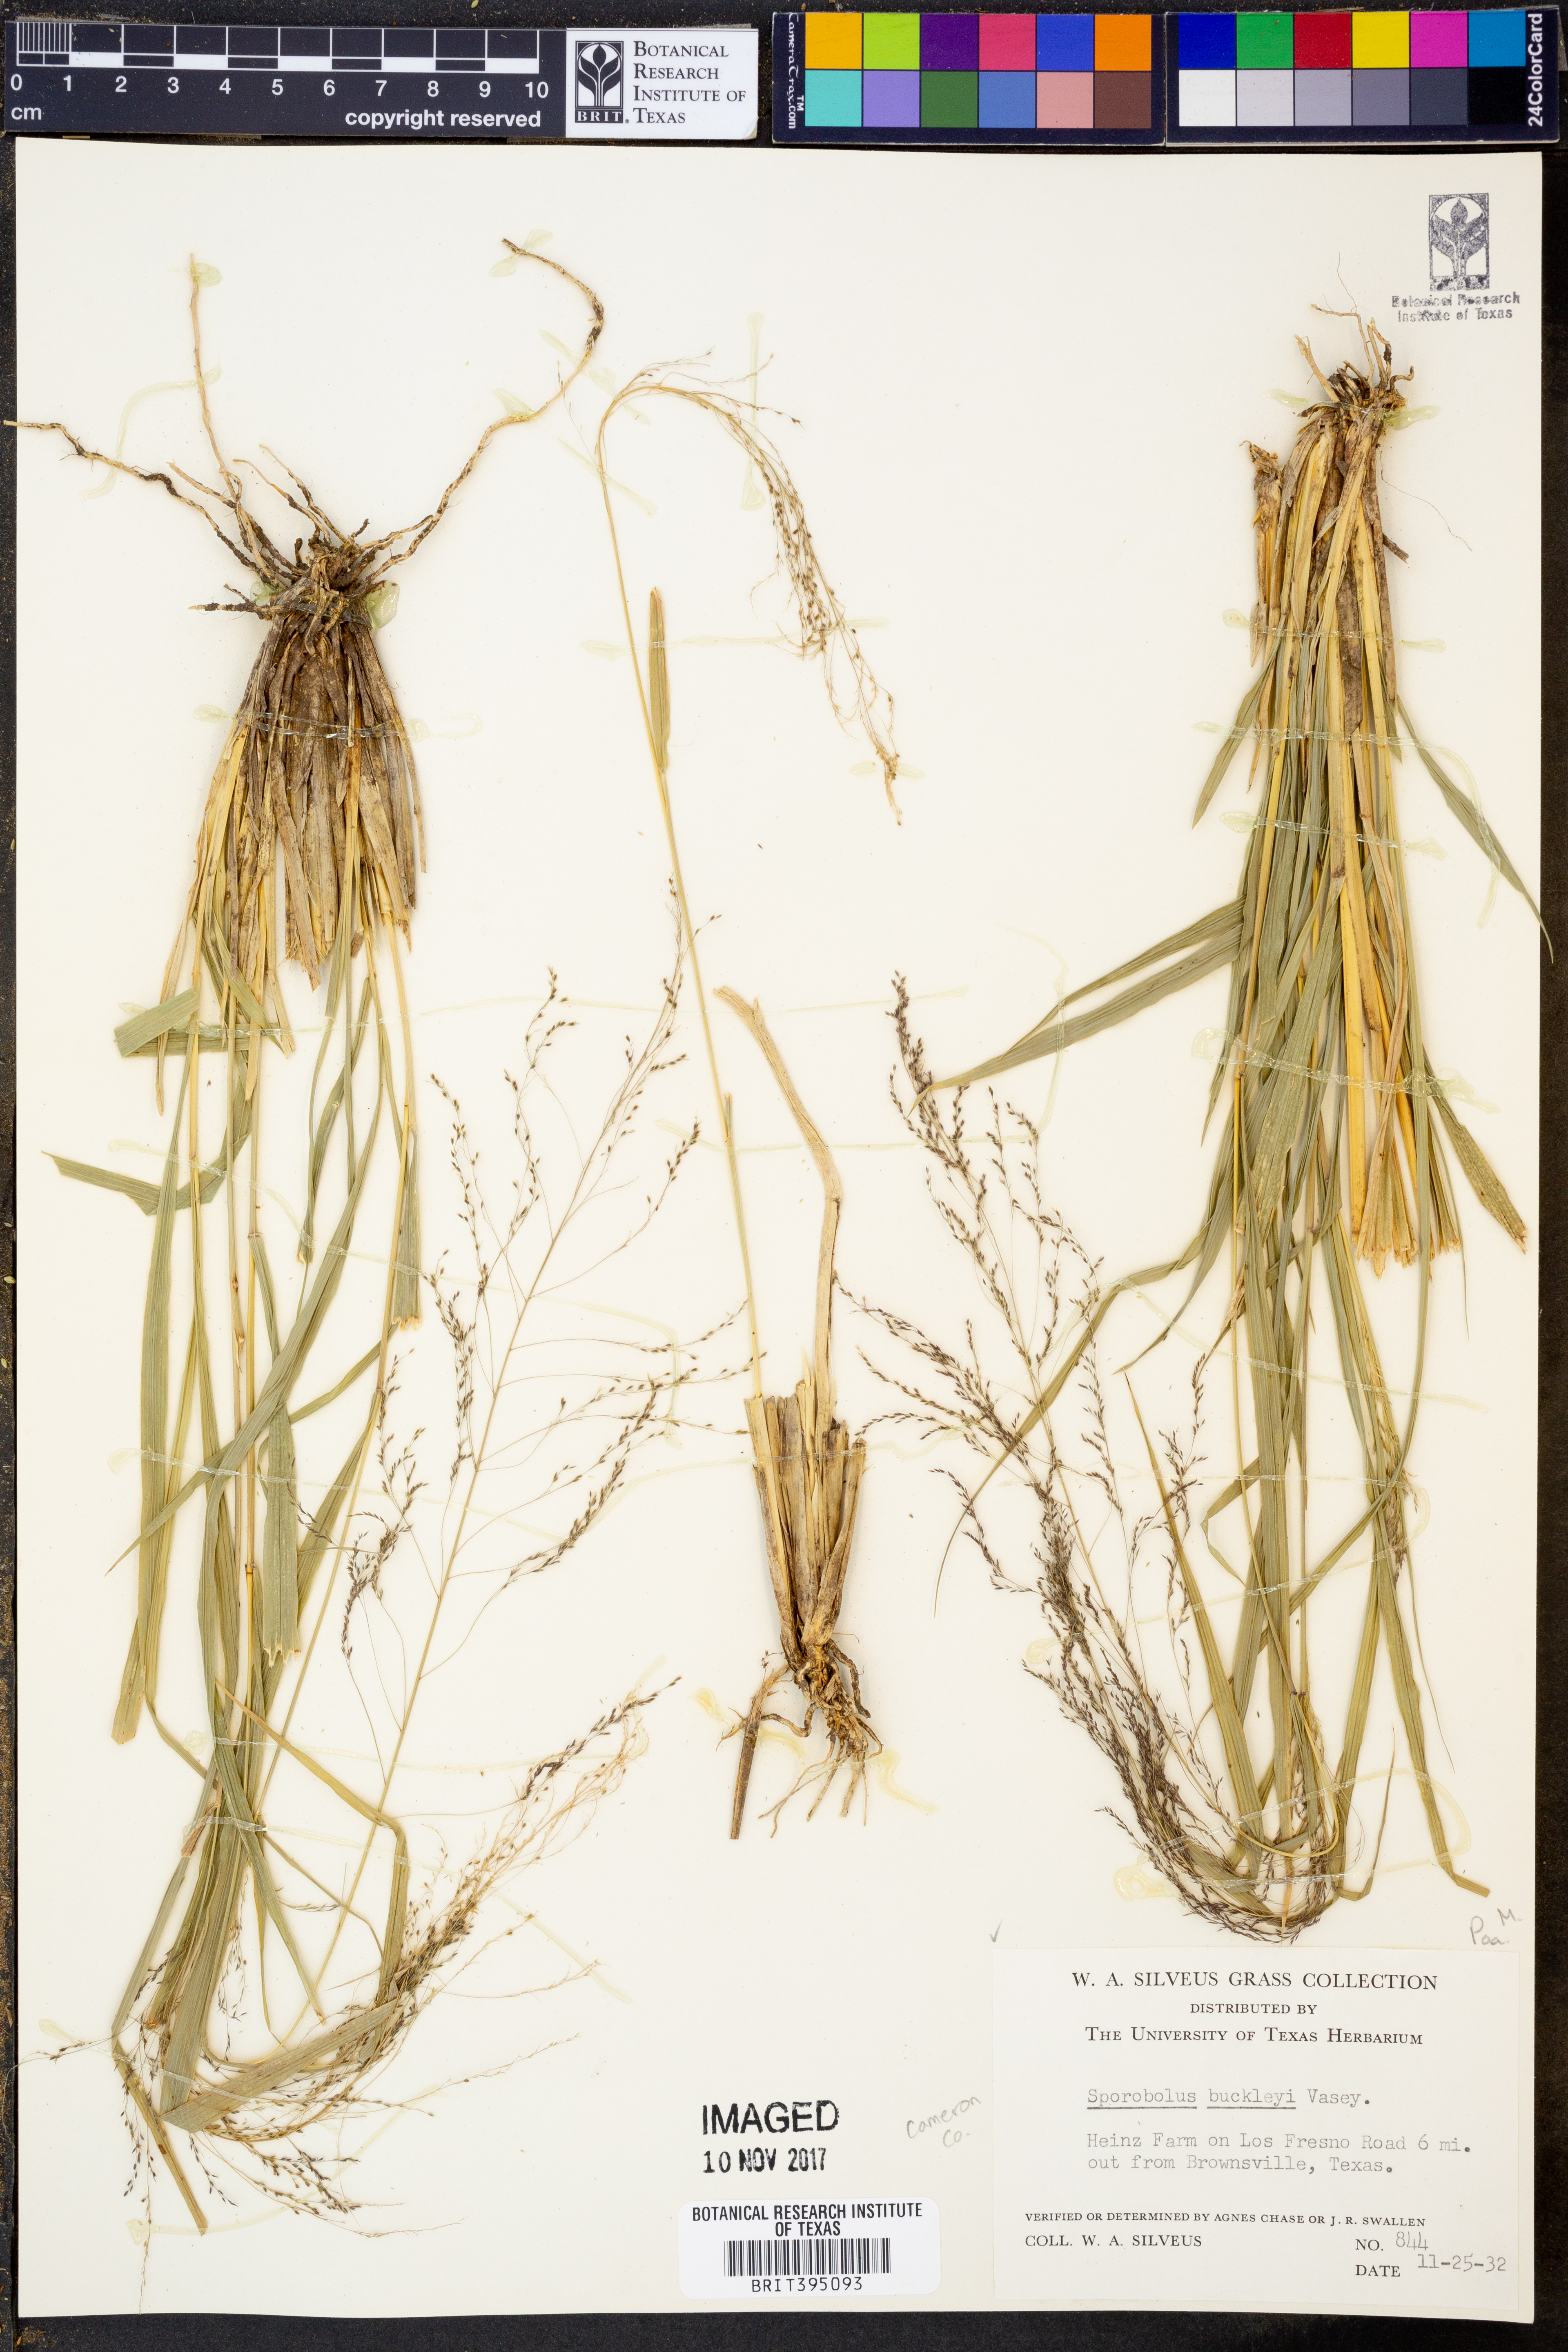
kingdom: Plantae
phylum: Tracheophyta
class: Liliopsida
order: Poales
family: Poaceae
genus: Sporobolus
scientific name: Sporobolus buckleyi
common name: Buckley's dropseed
